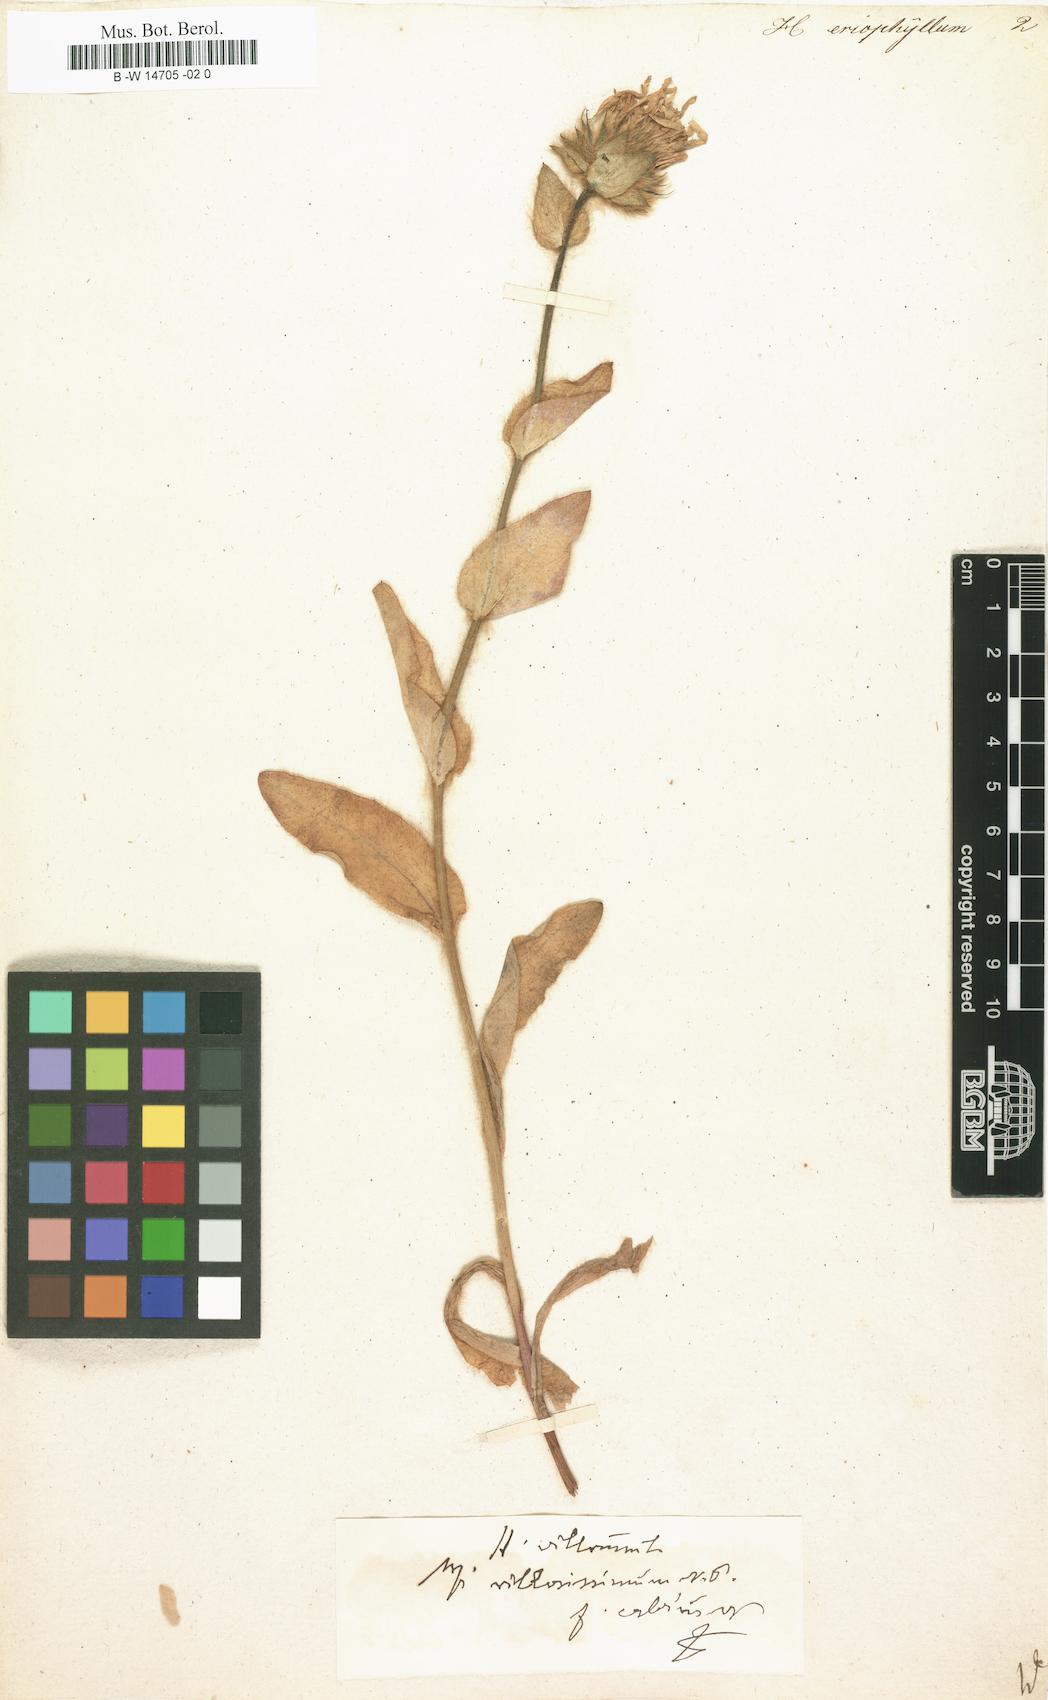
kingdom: Plantae
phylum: Tracheophyta
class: Magnoliopsida
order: Asterales
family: Asteraceae
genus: Hieracium
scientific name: Hieracium villosum
